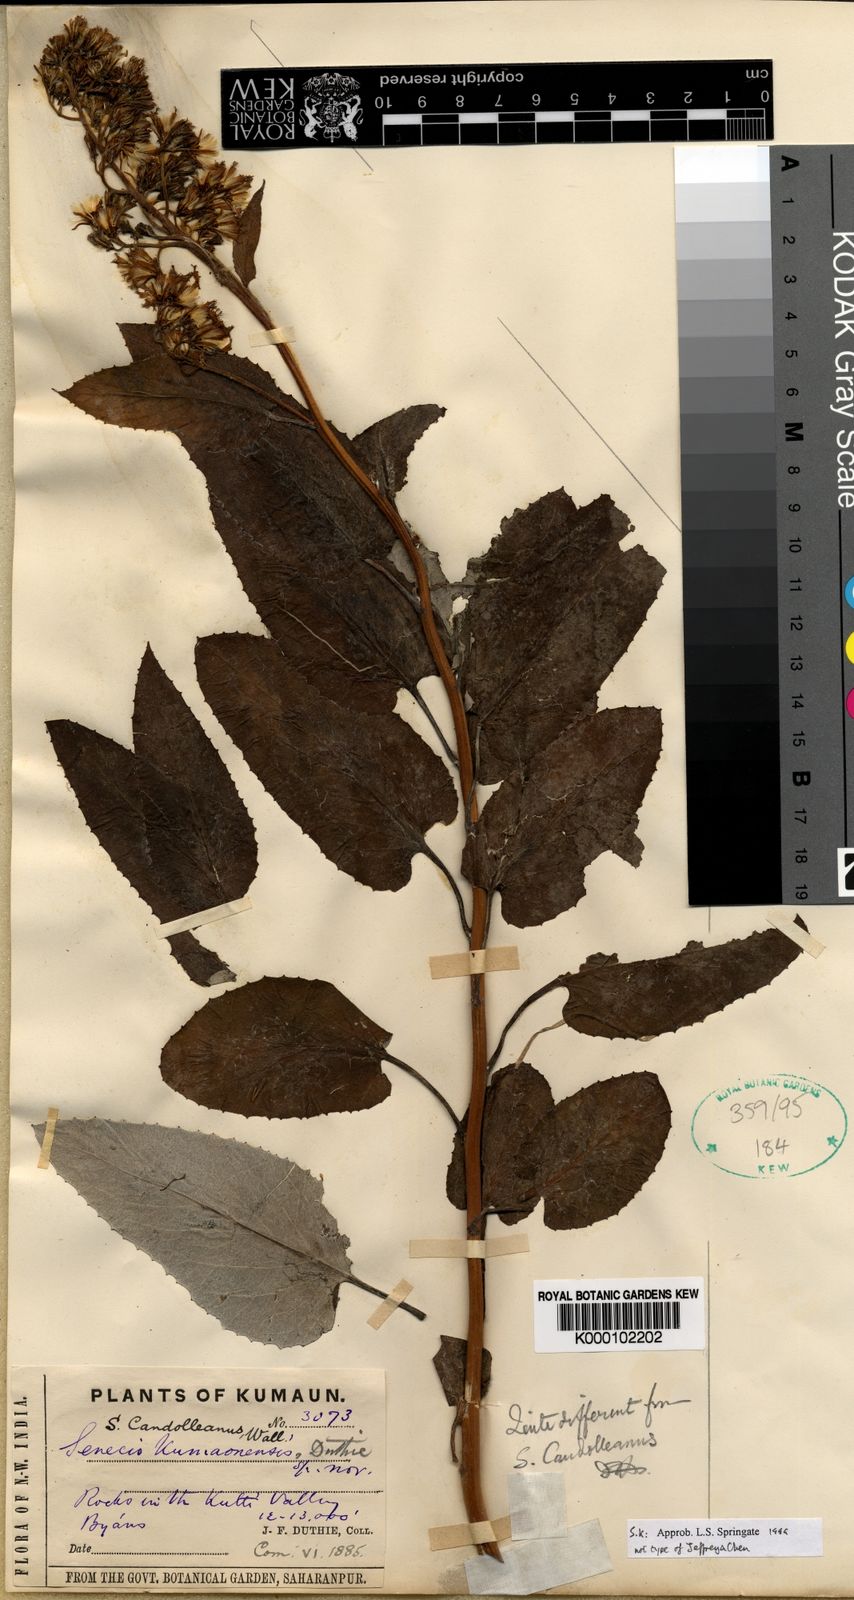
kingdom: Plantae
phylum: Tracheophyta
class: Magnoliopsida
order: Asterales
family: Asteraceae
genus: Synotis
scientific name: Synotis penninervis
